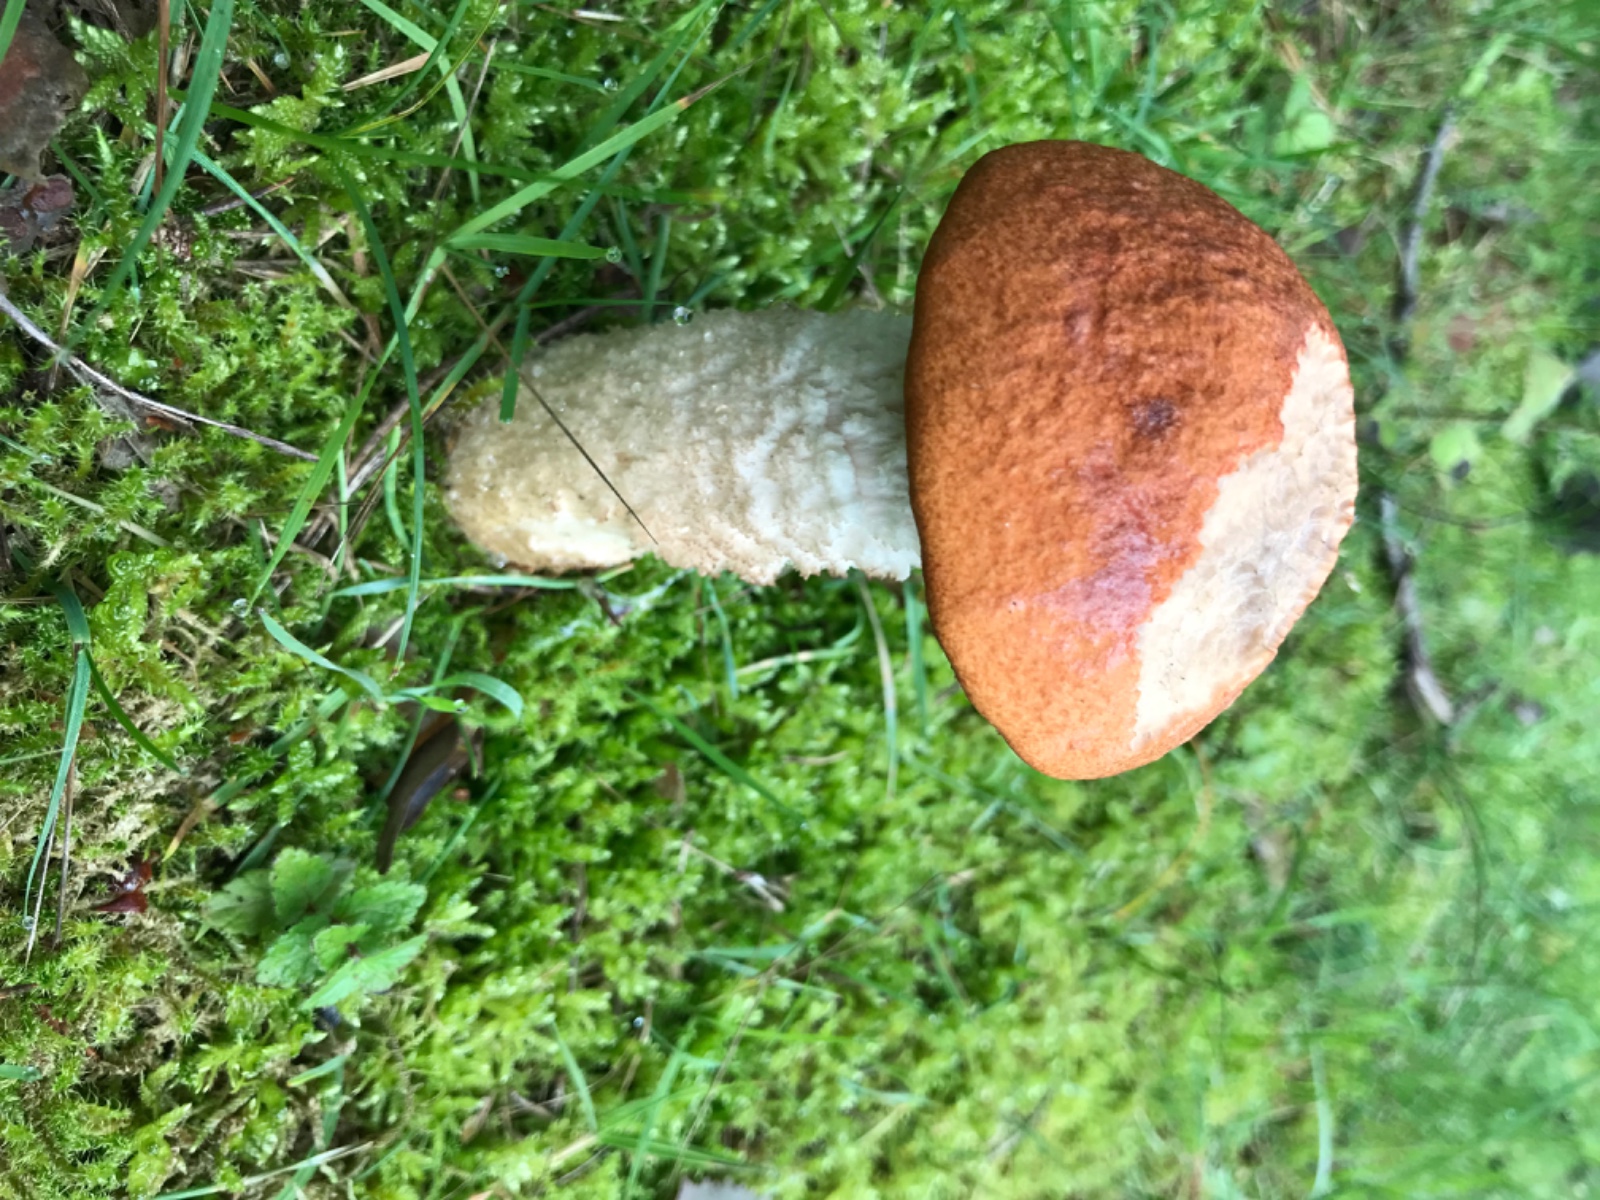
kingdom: Fungi
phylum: Basidiomycota
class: Agaricomycetes
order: Boletales
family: Boletaceae
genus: Leccinum
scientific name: Leccinum albostipitatum
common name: aspe-skælrørhat
